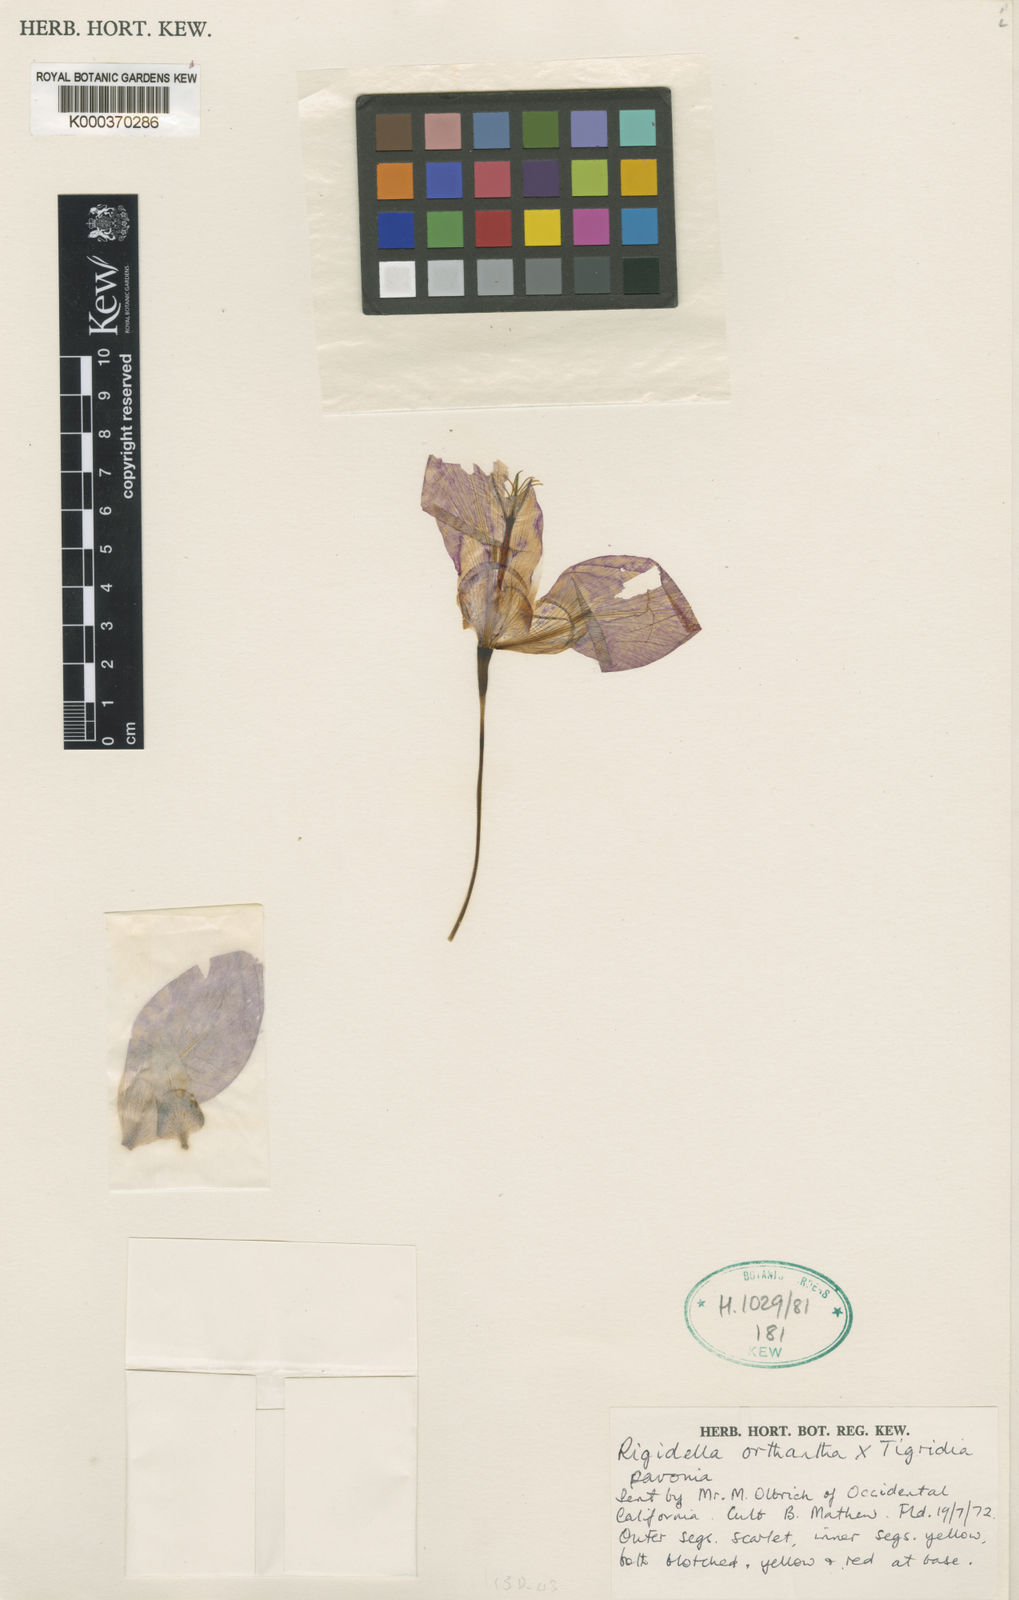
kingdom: Plantae
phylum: Tracheophyta
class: Liliopsida
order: Asparagales
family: Iridaceae
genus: Tigridia
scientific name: Tigridia orthantha
